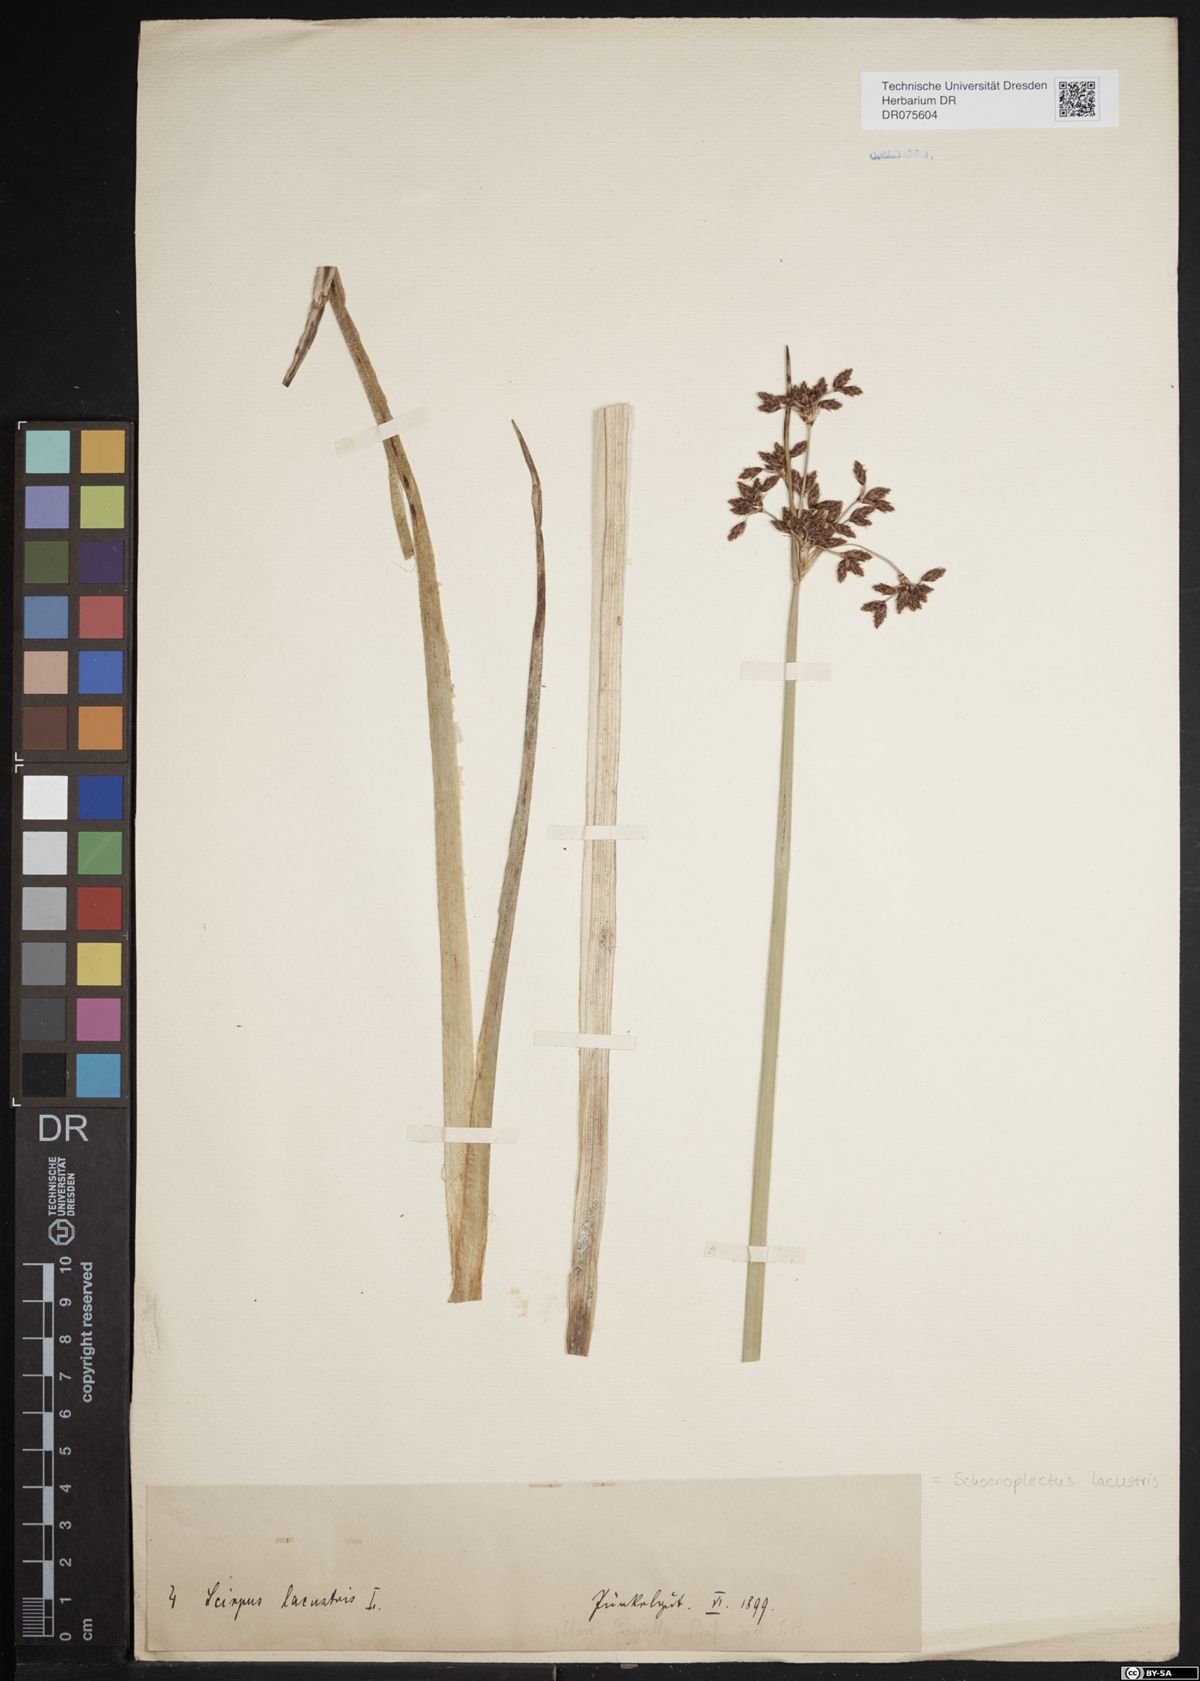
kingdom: Plantae
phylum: Tracheophyta
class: Liliopsida
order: Poales
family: Cyperaceae
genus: Schoenoplectus
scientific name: Schoenoplectus lacustris
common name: Common club-rush
